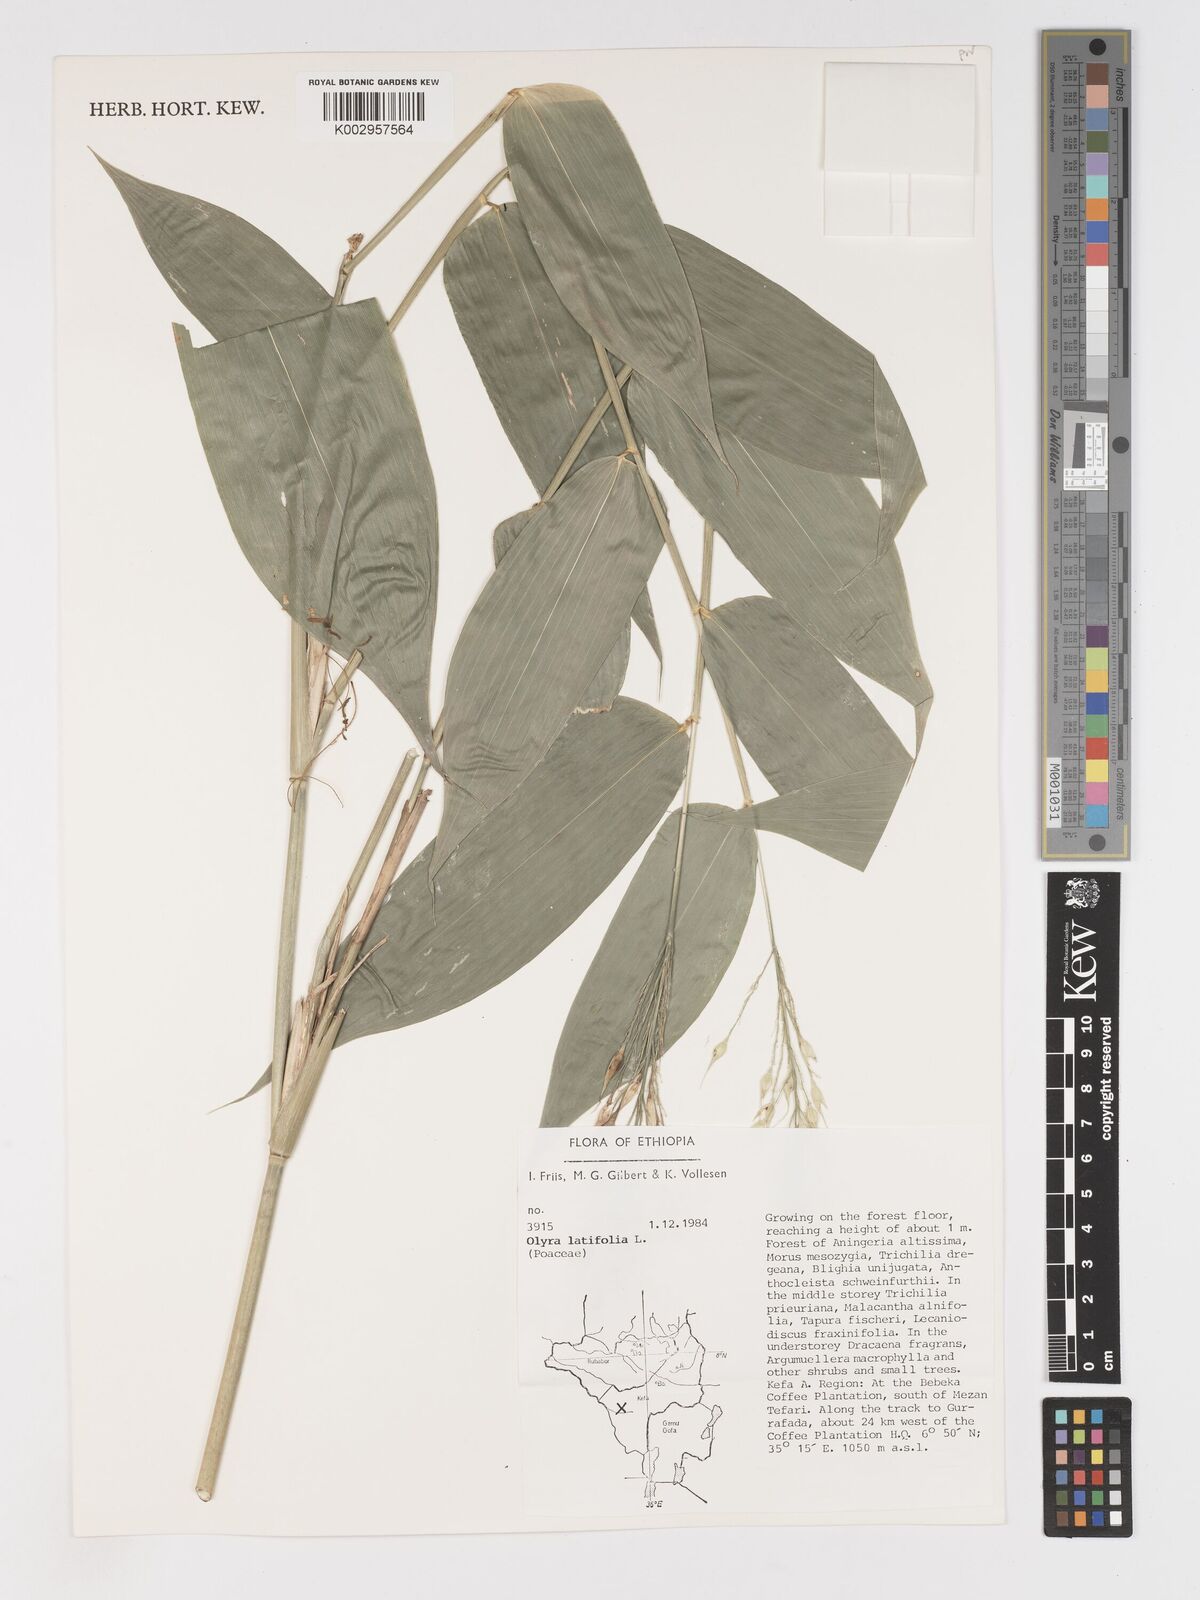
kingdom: Plantae
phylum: Tracheophyta
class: Liliopsida
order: Poales
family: Poaceae
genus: Olyra
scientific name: Olyra latifolia
